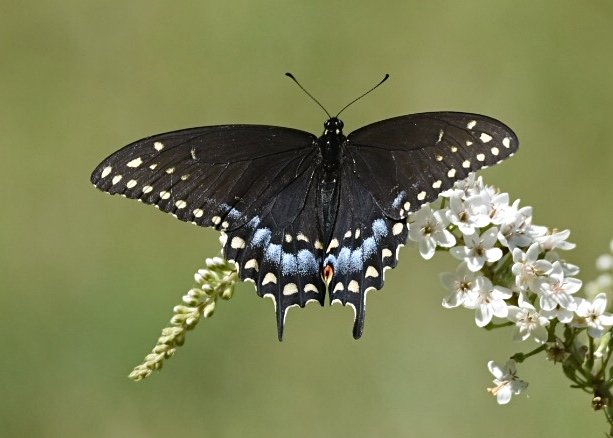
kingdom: Animalia
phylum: Arthropoda
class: Insecta
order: Lepidoptera
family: Papilionidae
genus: Papilio
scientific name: Papilio polyxenes
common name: Black Swallowtail
